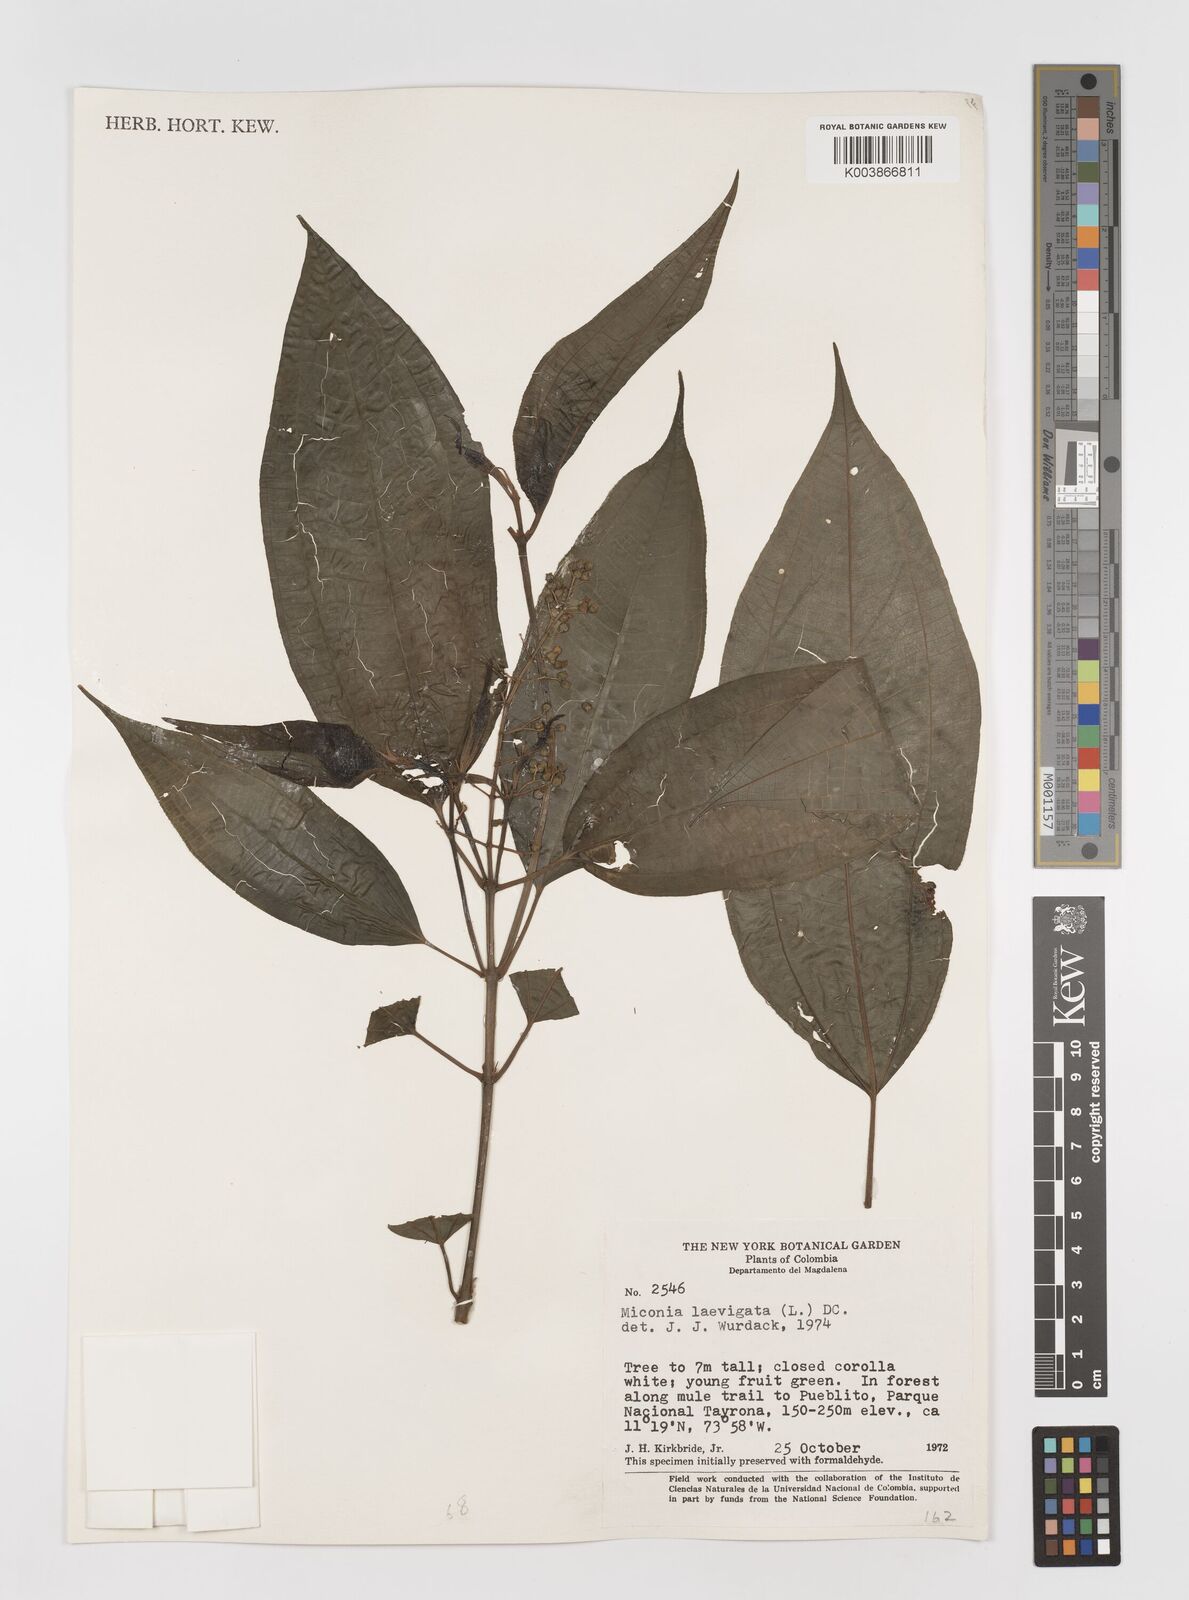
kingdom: Plantae
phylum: Tracheophyta
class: Magnoliopsida
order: Myrtales
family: Melastomataceae
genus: Miconia
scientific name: Miconia laevigata
